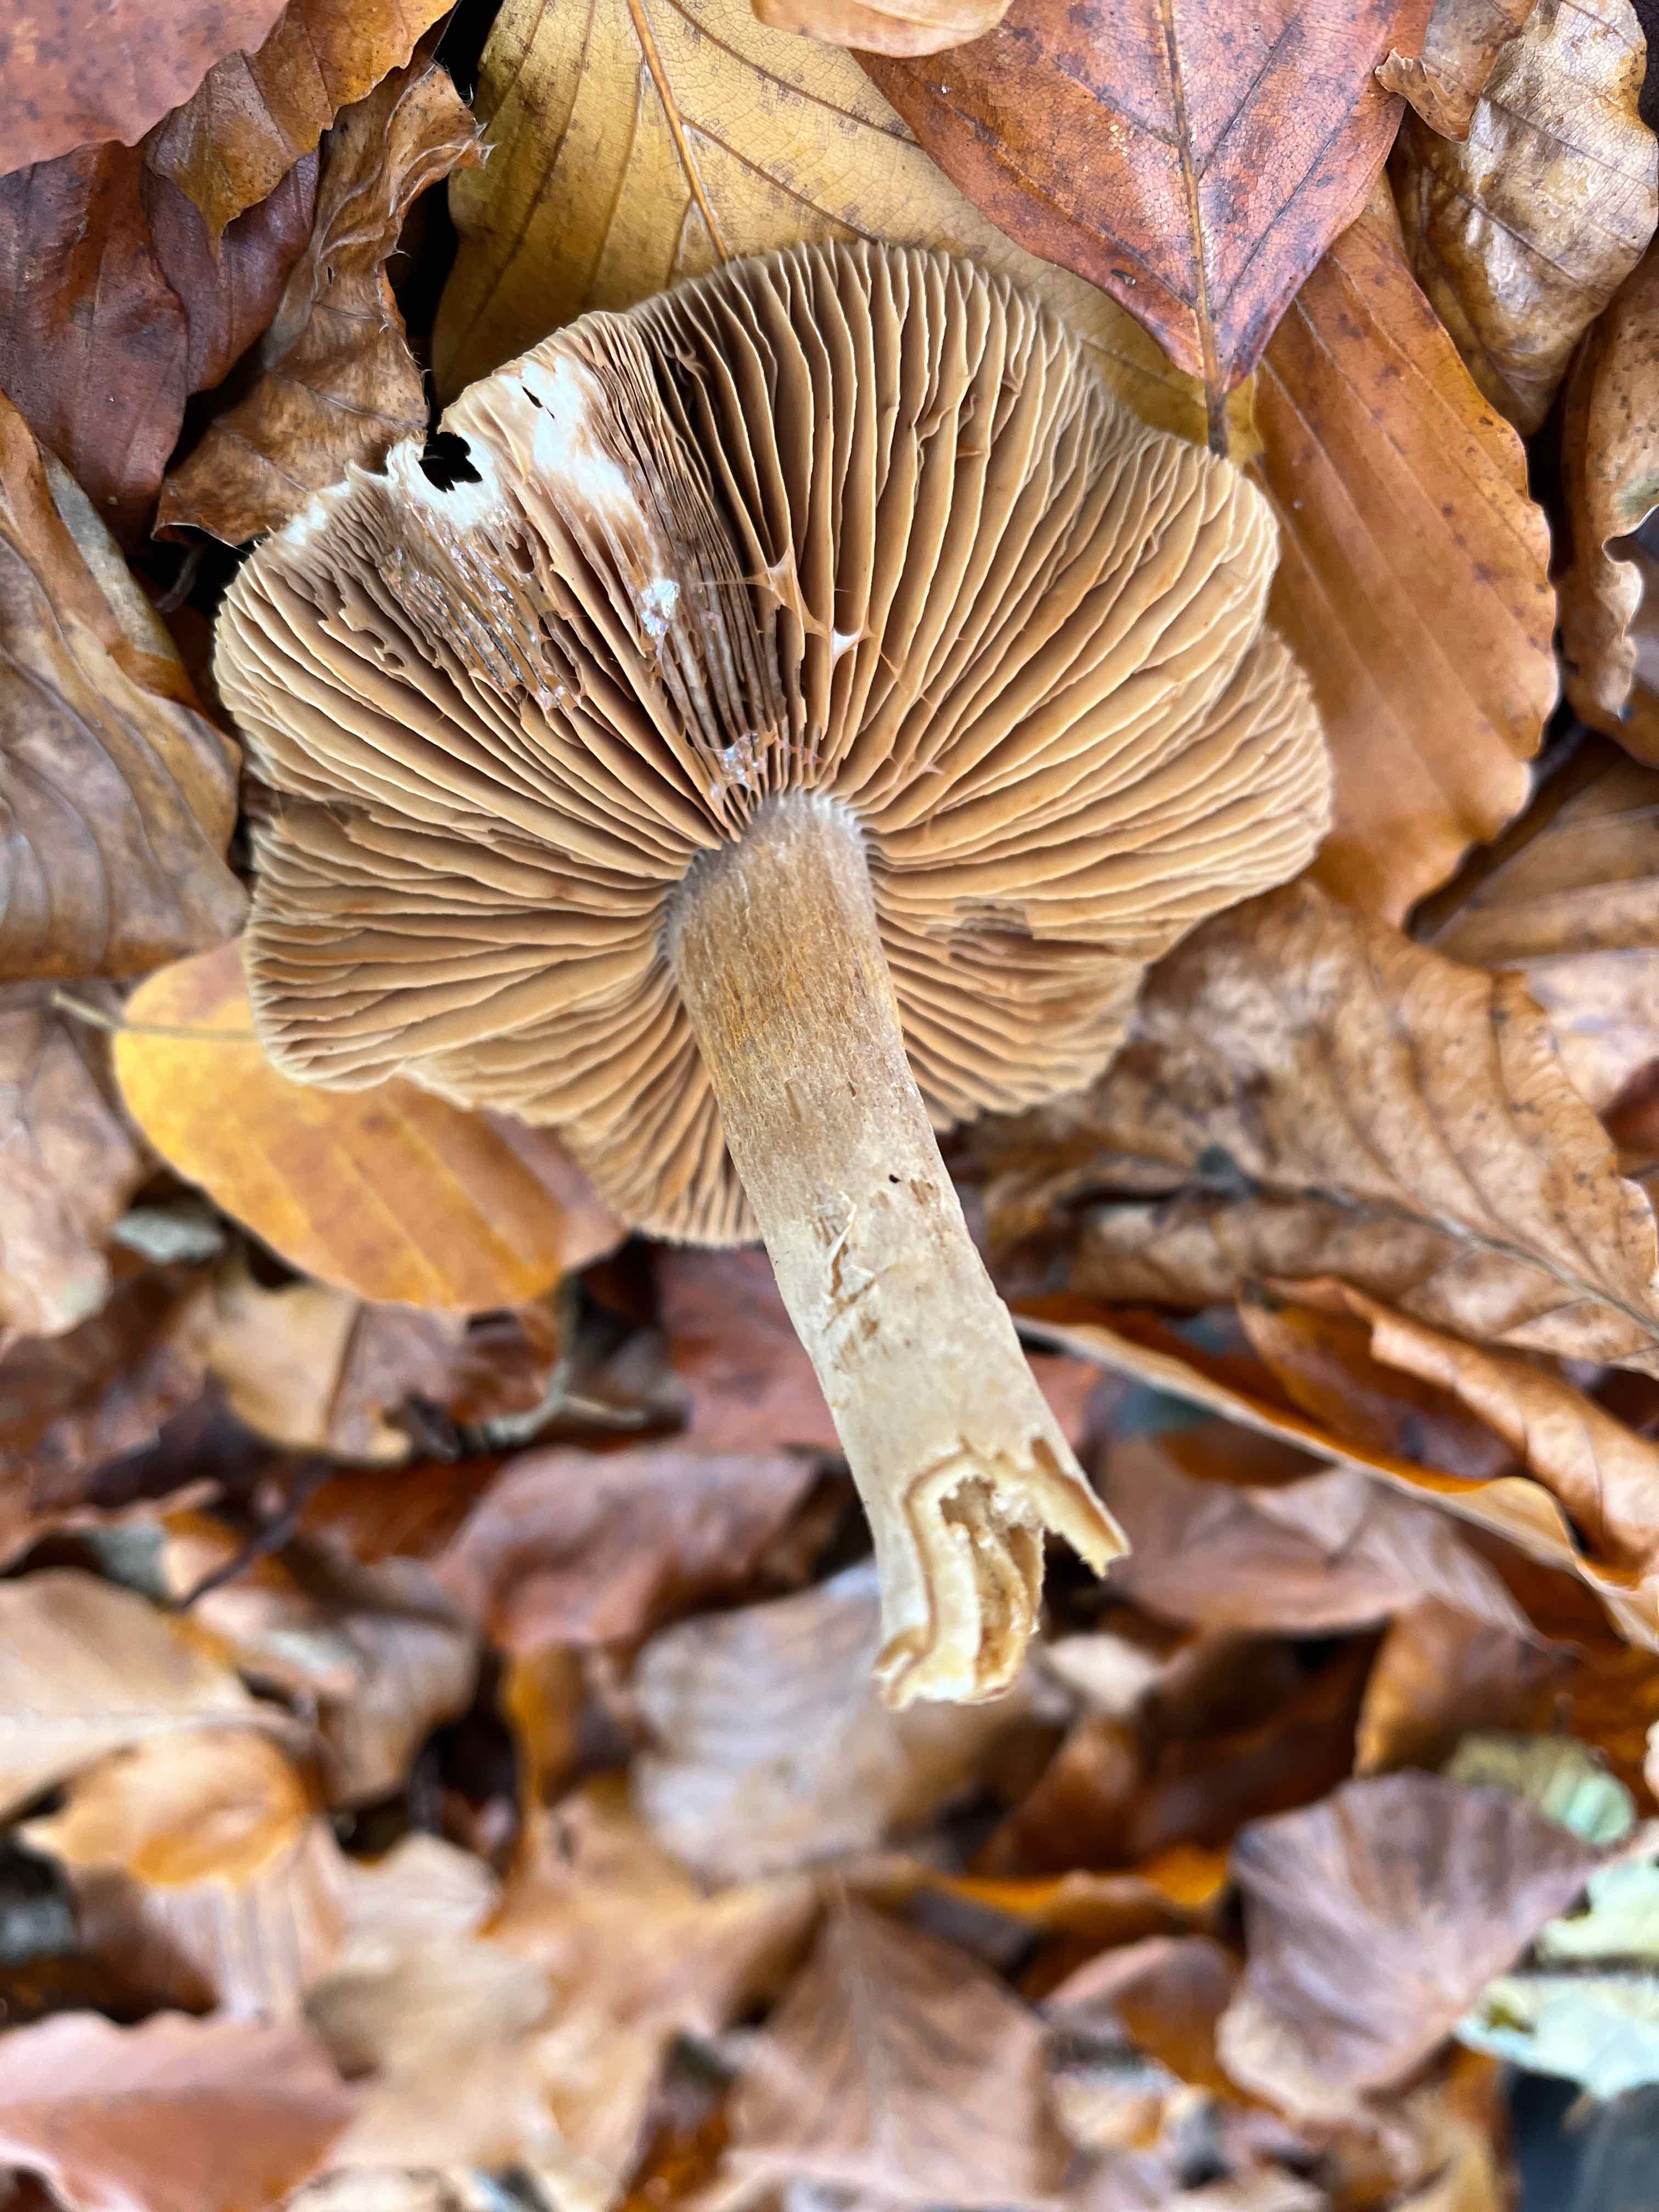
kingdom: Fungi
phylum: Basidiomycota
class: Agaricomycetes
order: Agaricales
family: Cortinariaceae
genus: Cortinarius
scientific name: Cortinarius
